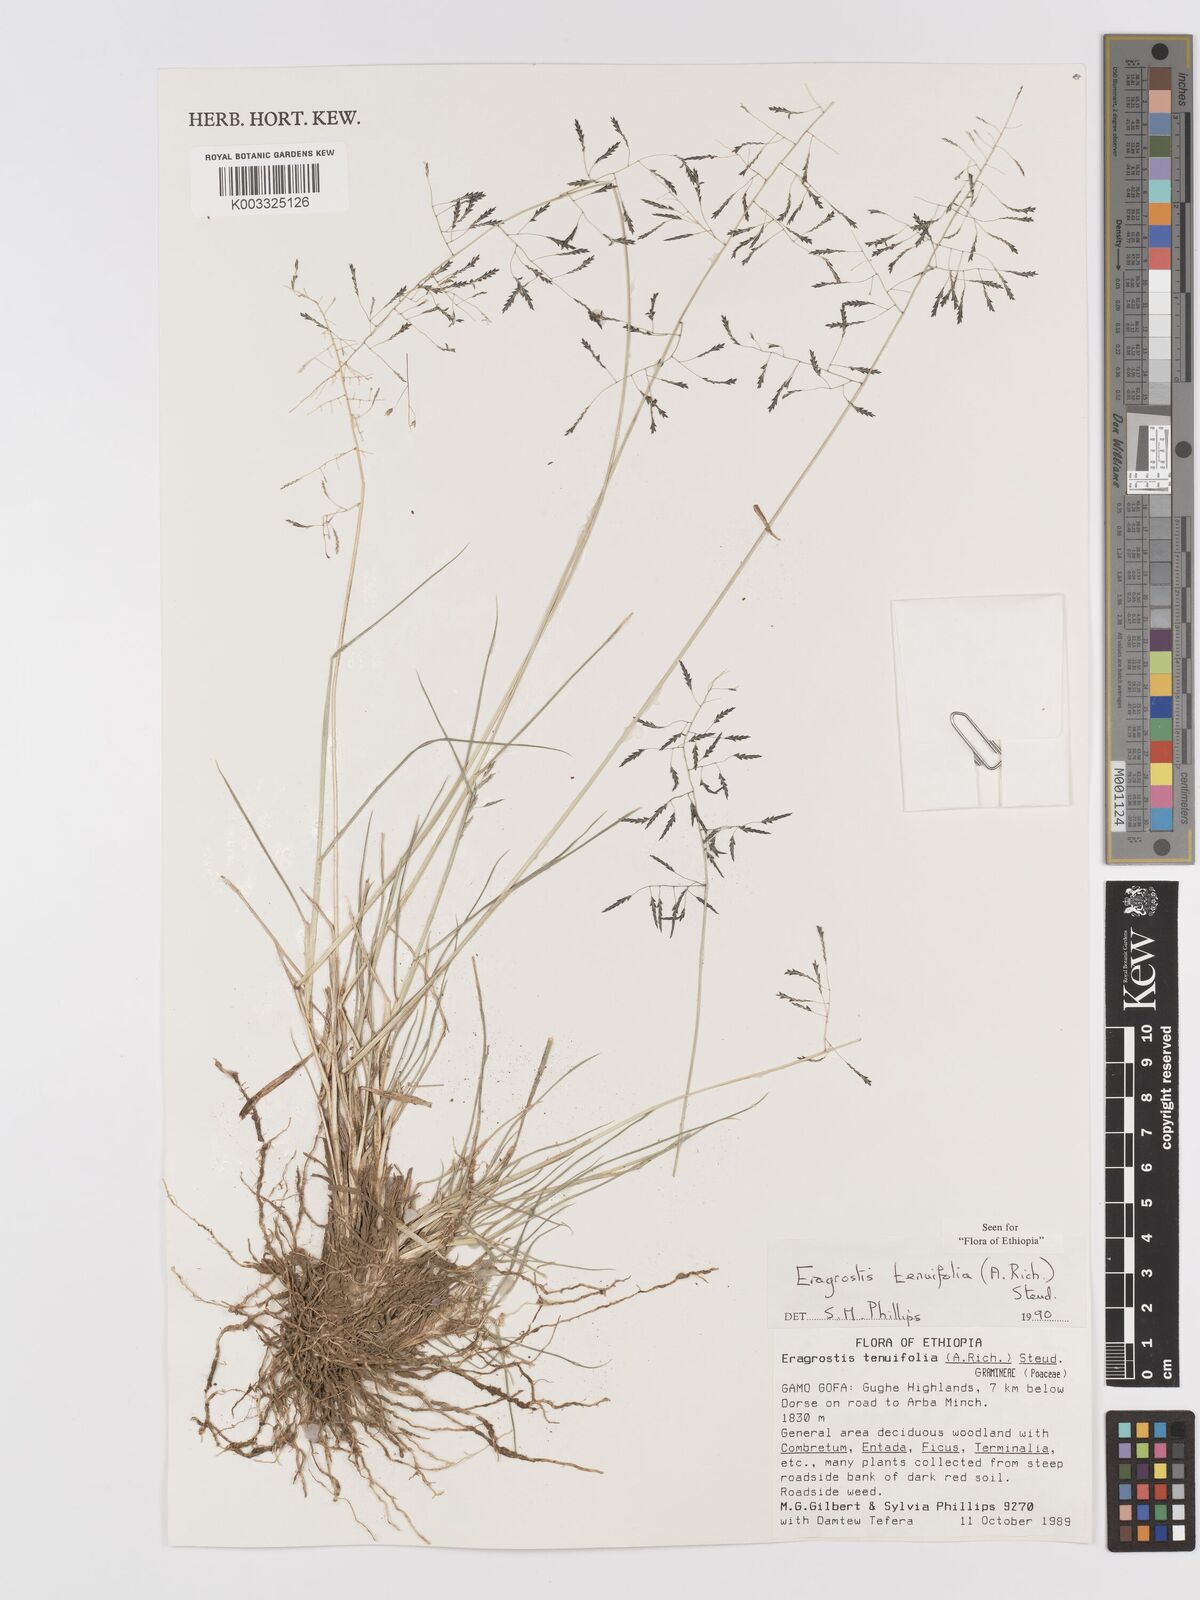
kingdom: Plantae
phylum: Tracheophyta
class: Liliopsida
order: Poales
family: Poaceae
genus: Eragrostis
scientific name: Eragrostis tenuifolia
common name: Elastic grass
